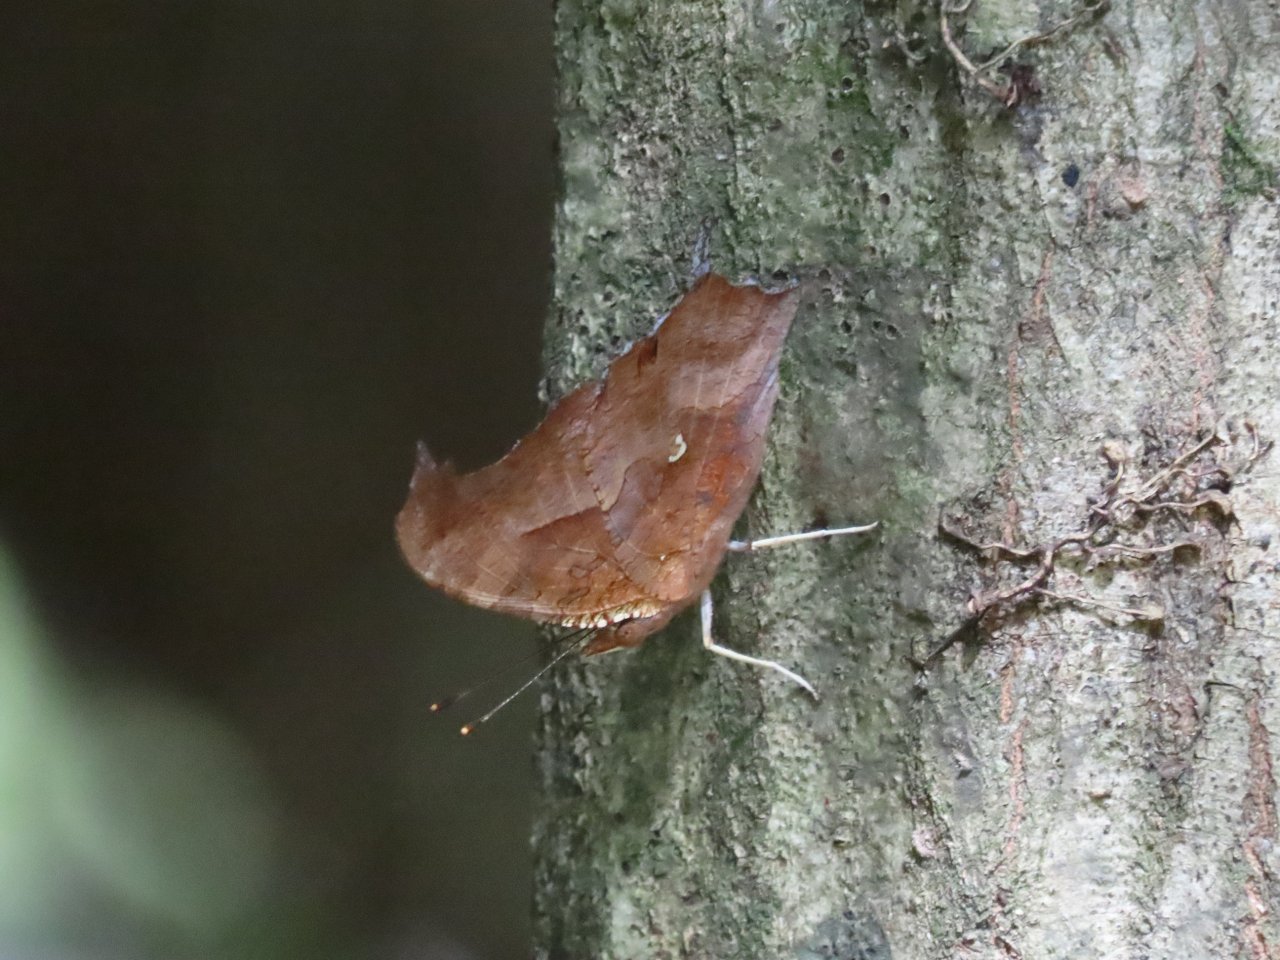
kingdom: Animalia
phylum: Arthropoda
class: Insecta
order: Lepidoptera
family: Nymphalidae
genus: Polygonia
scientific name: Polygonia interrogationis
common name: Question Mark
